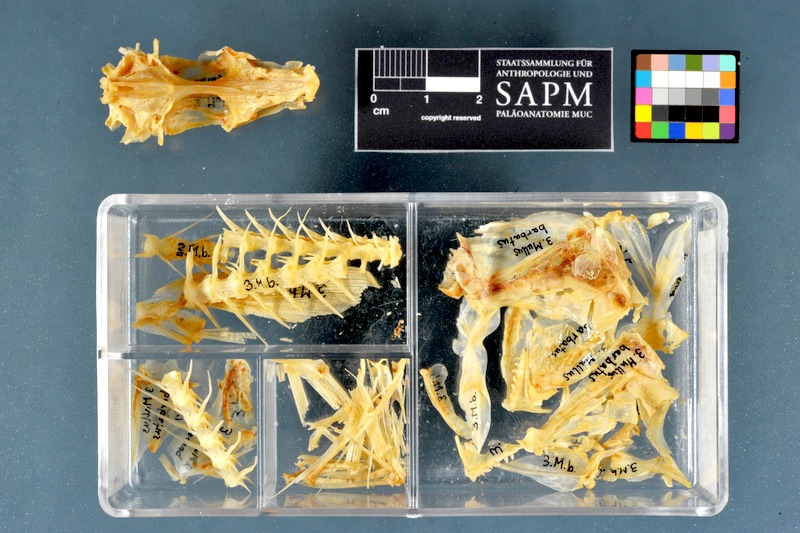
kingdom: Animalia
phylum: Chordata
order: Perciformes
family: Mullidae
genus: Mullus
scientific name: Mullus barbatus
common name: Blunt-snouted mullet
